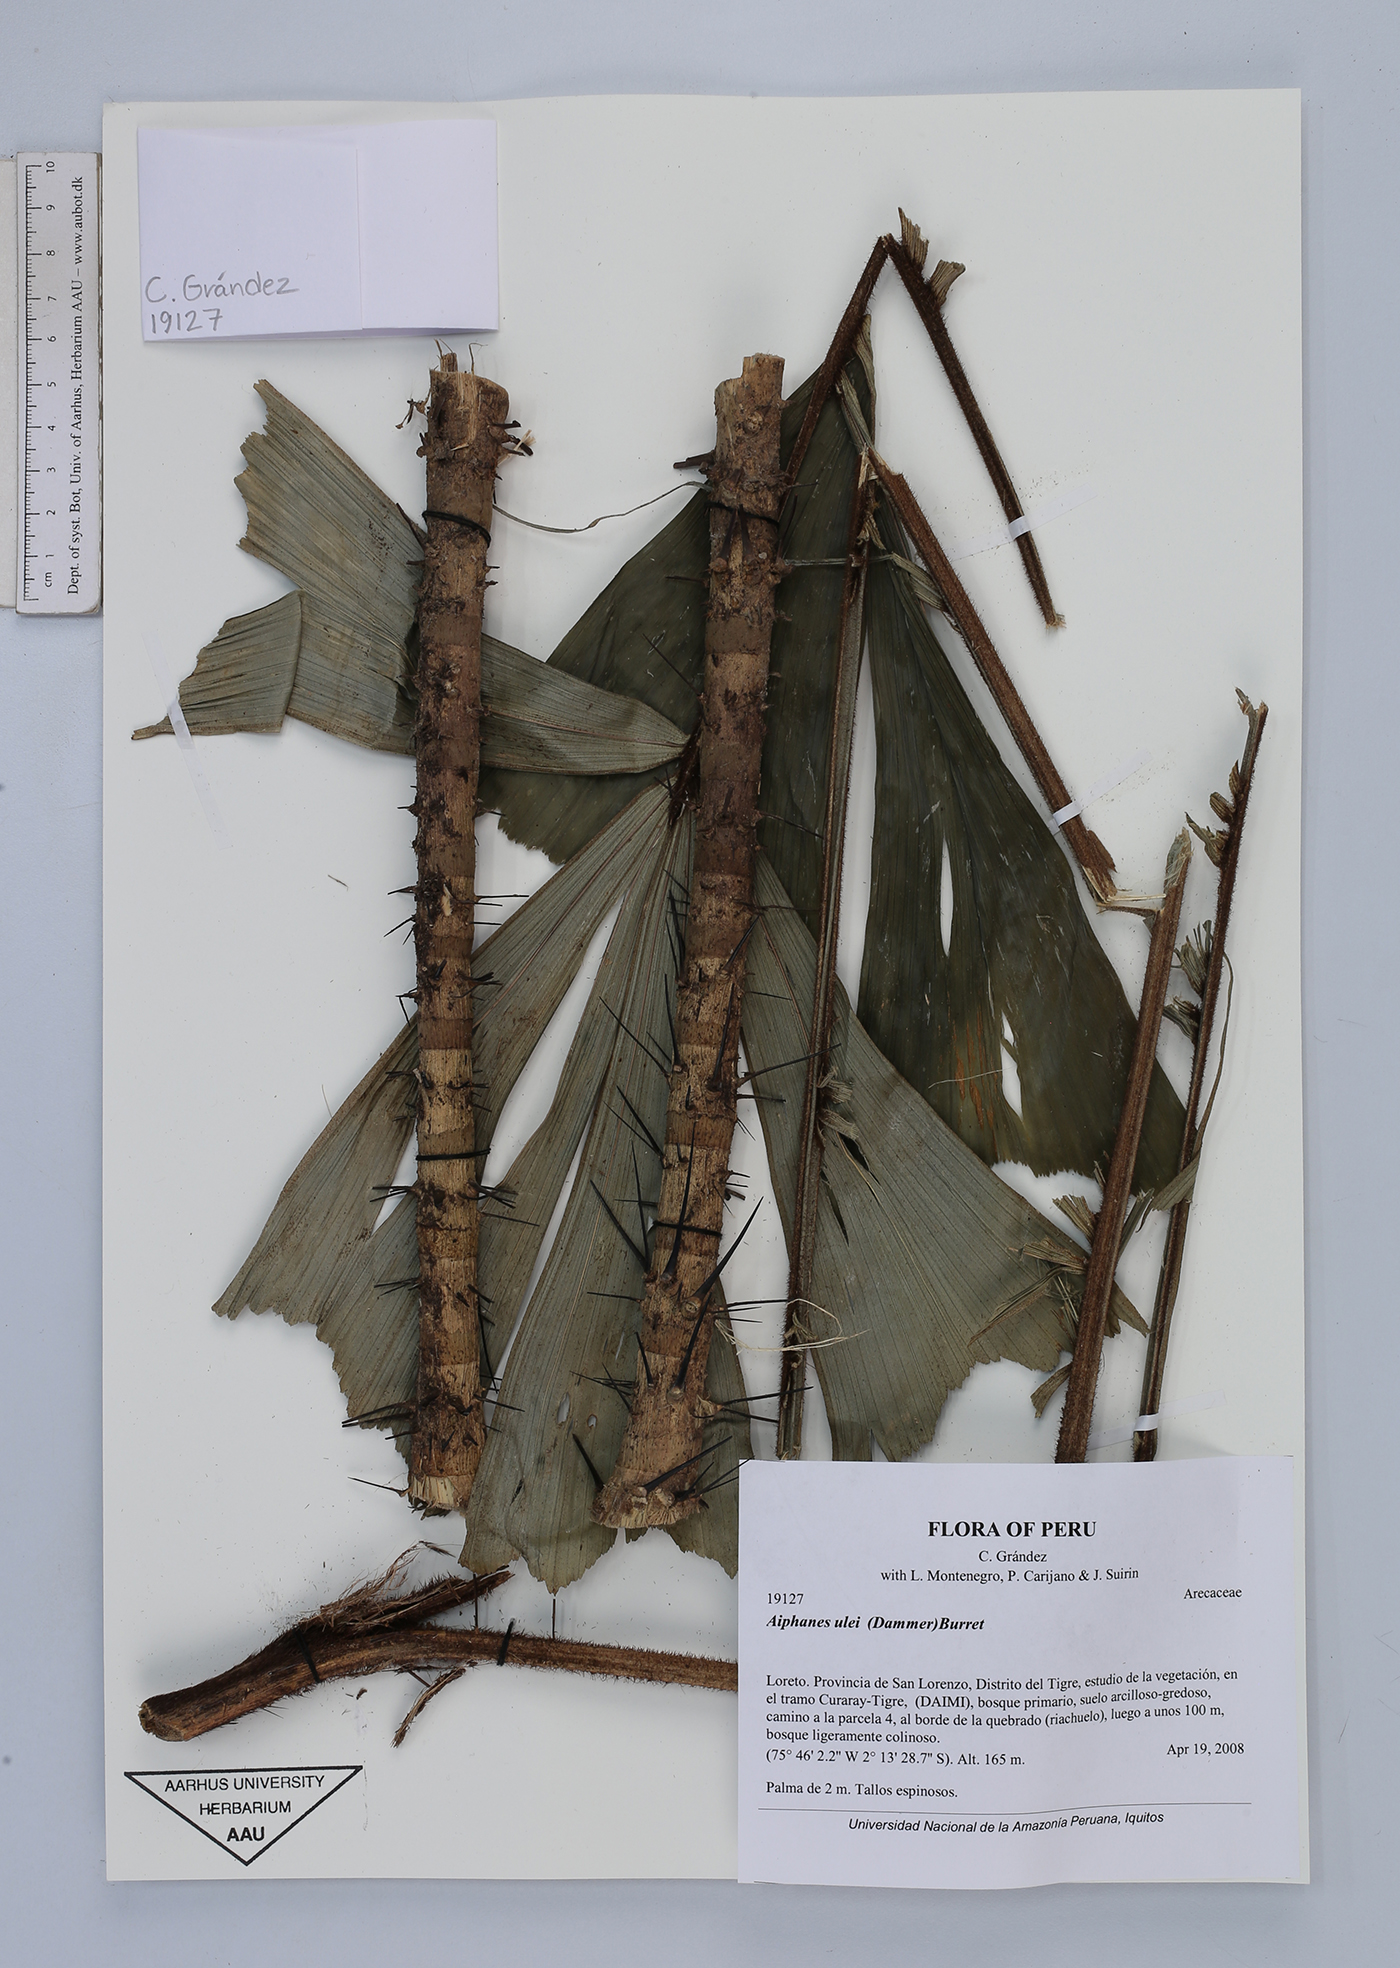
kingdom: Plantae
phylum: Tracheophyta
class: Liliopsida
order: Arecales
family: Arecaceae
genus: Aiphanes
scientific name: Aiphanes ulei
